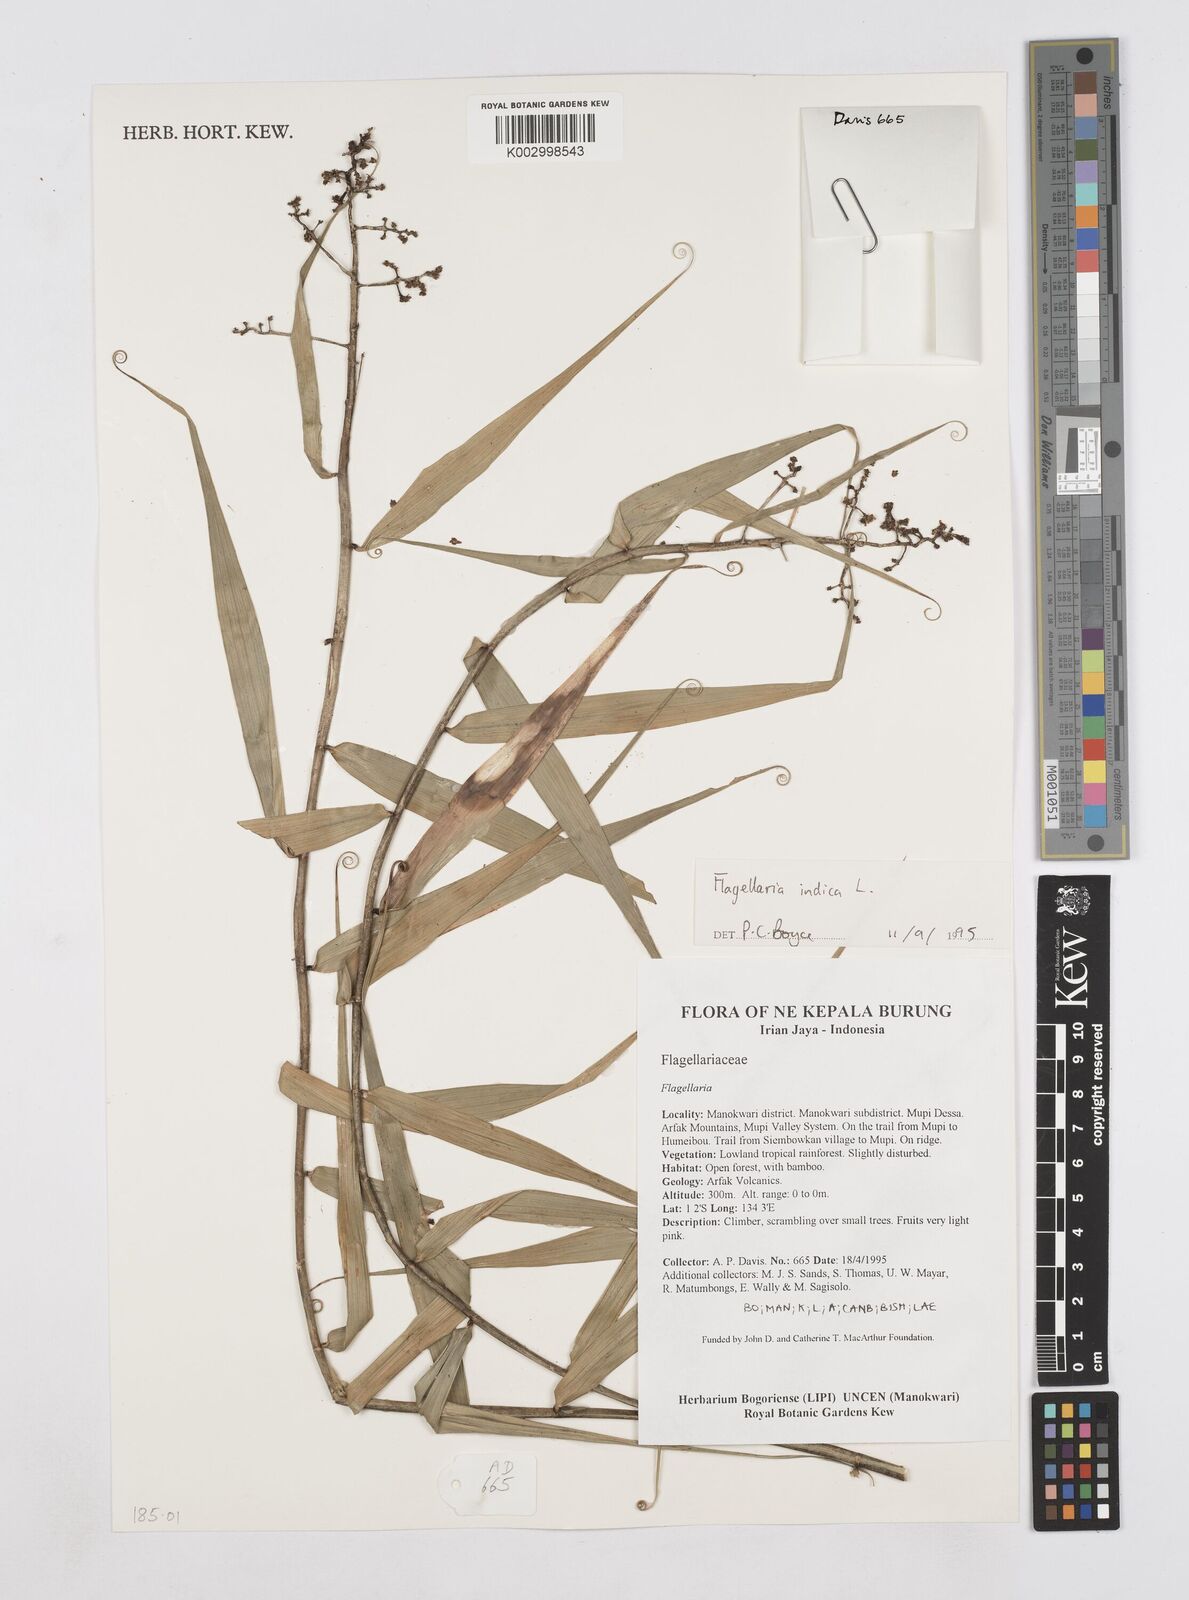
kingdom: Plantae
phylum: Tracheophyta
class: Liliopsida
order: Poales
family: Flagellariaceae
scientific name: Flagellariaceae
